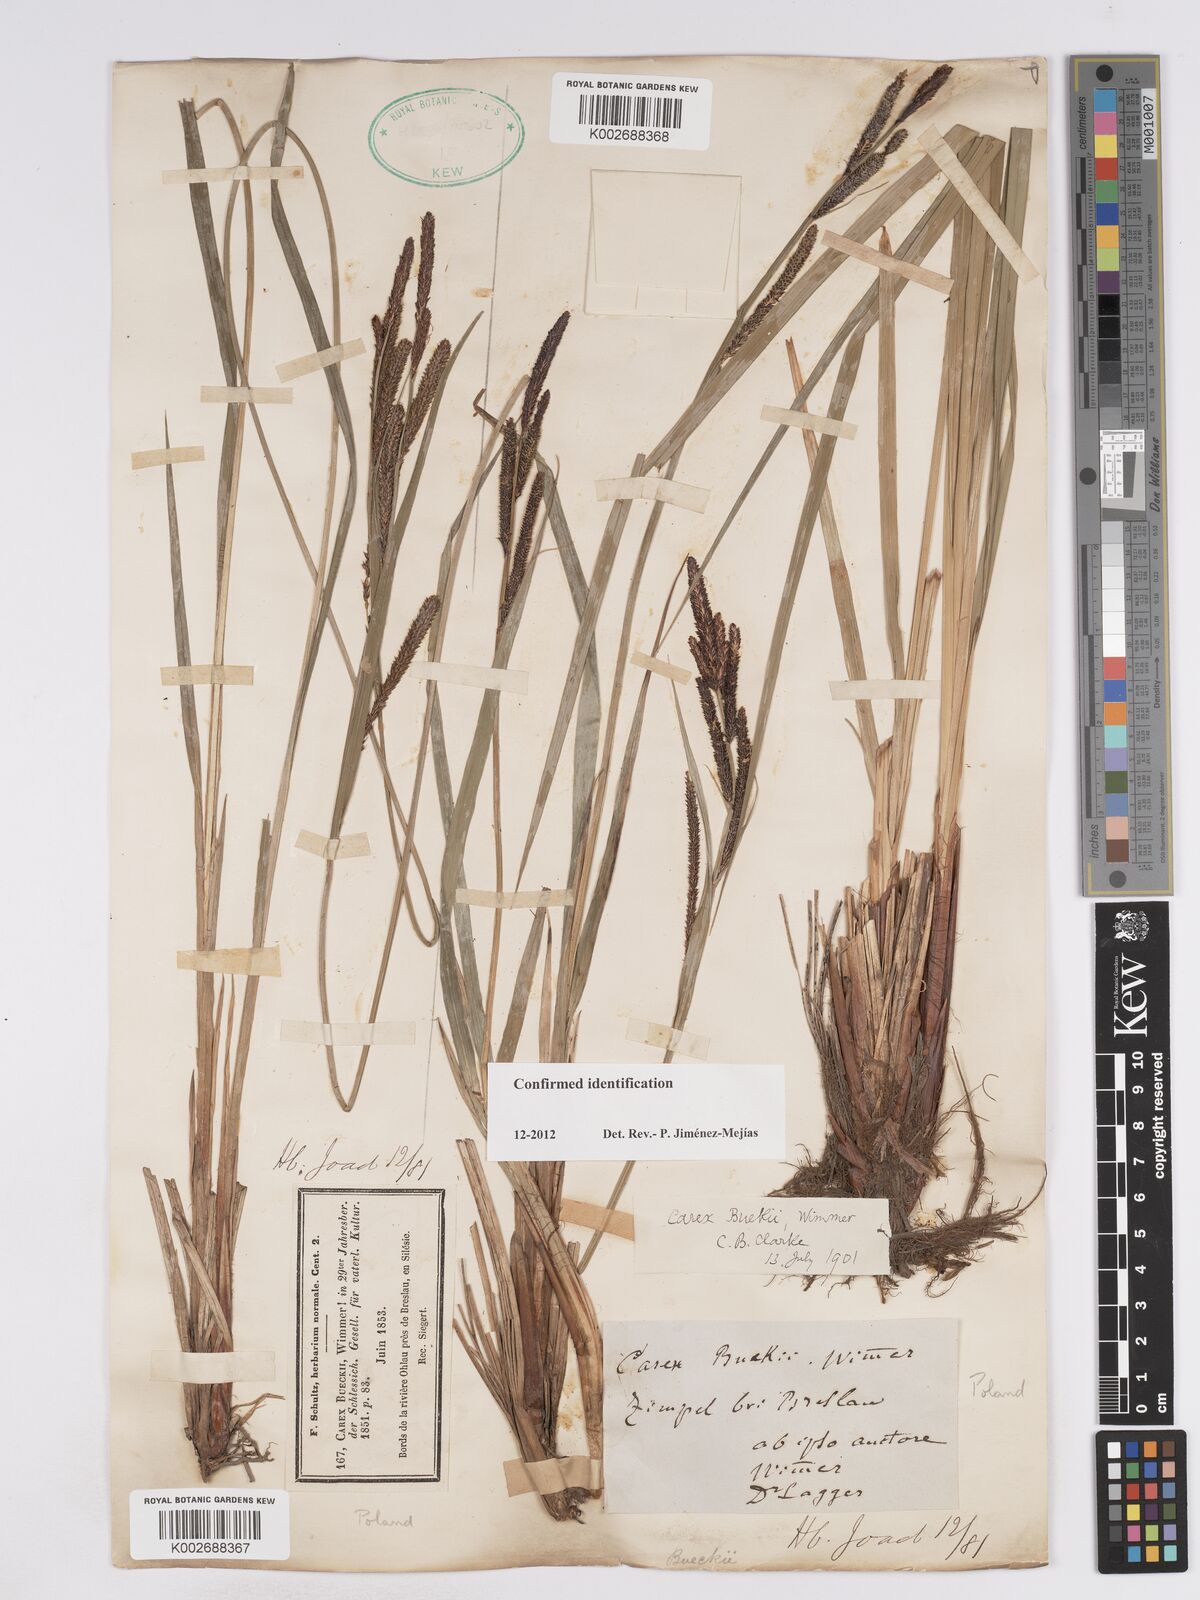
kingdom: Plantae
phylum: Tracheophyta
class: Liliopsida
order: Poales
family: Cyperaceae
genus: Carex
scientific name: Carex buekii
